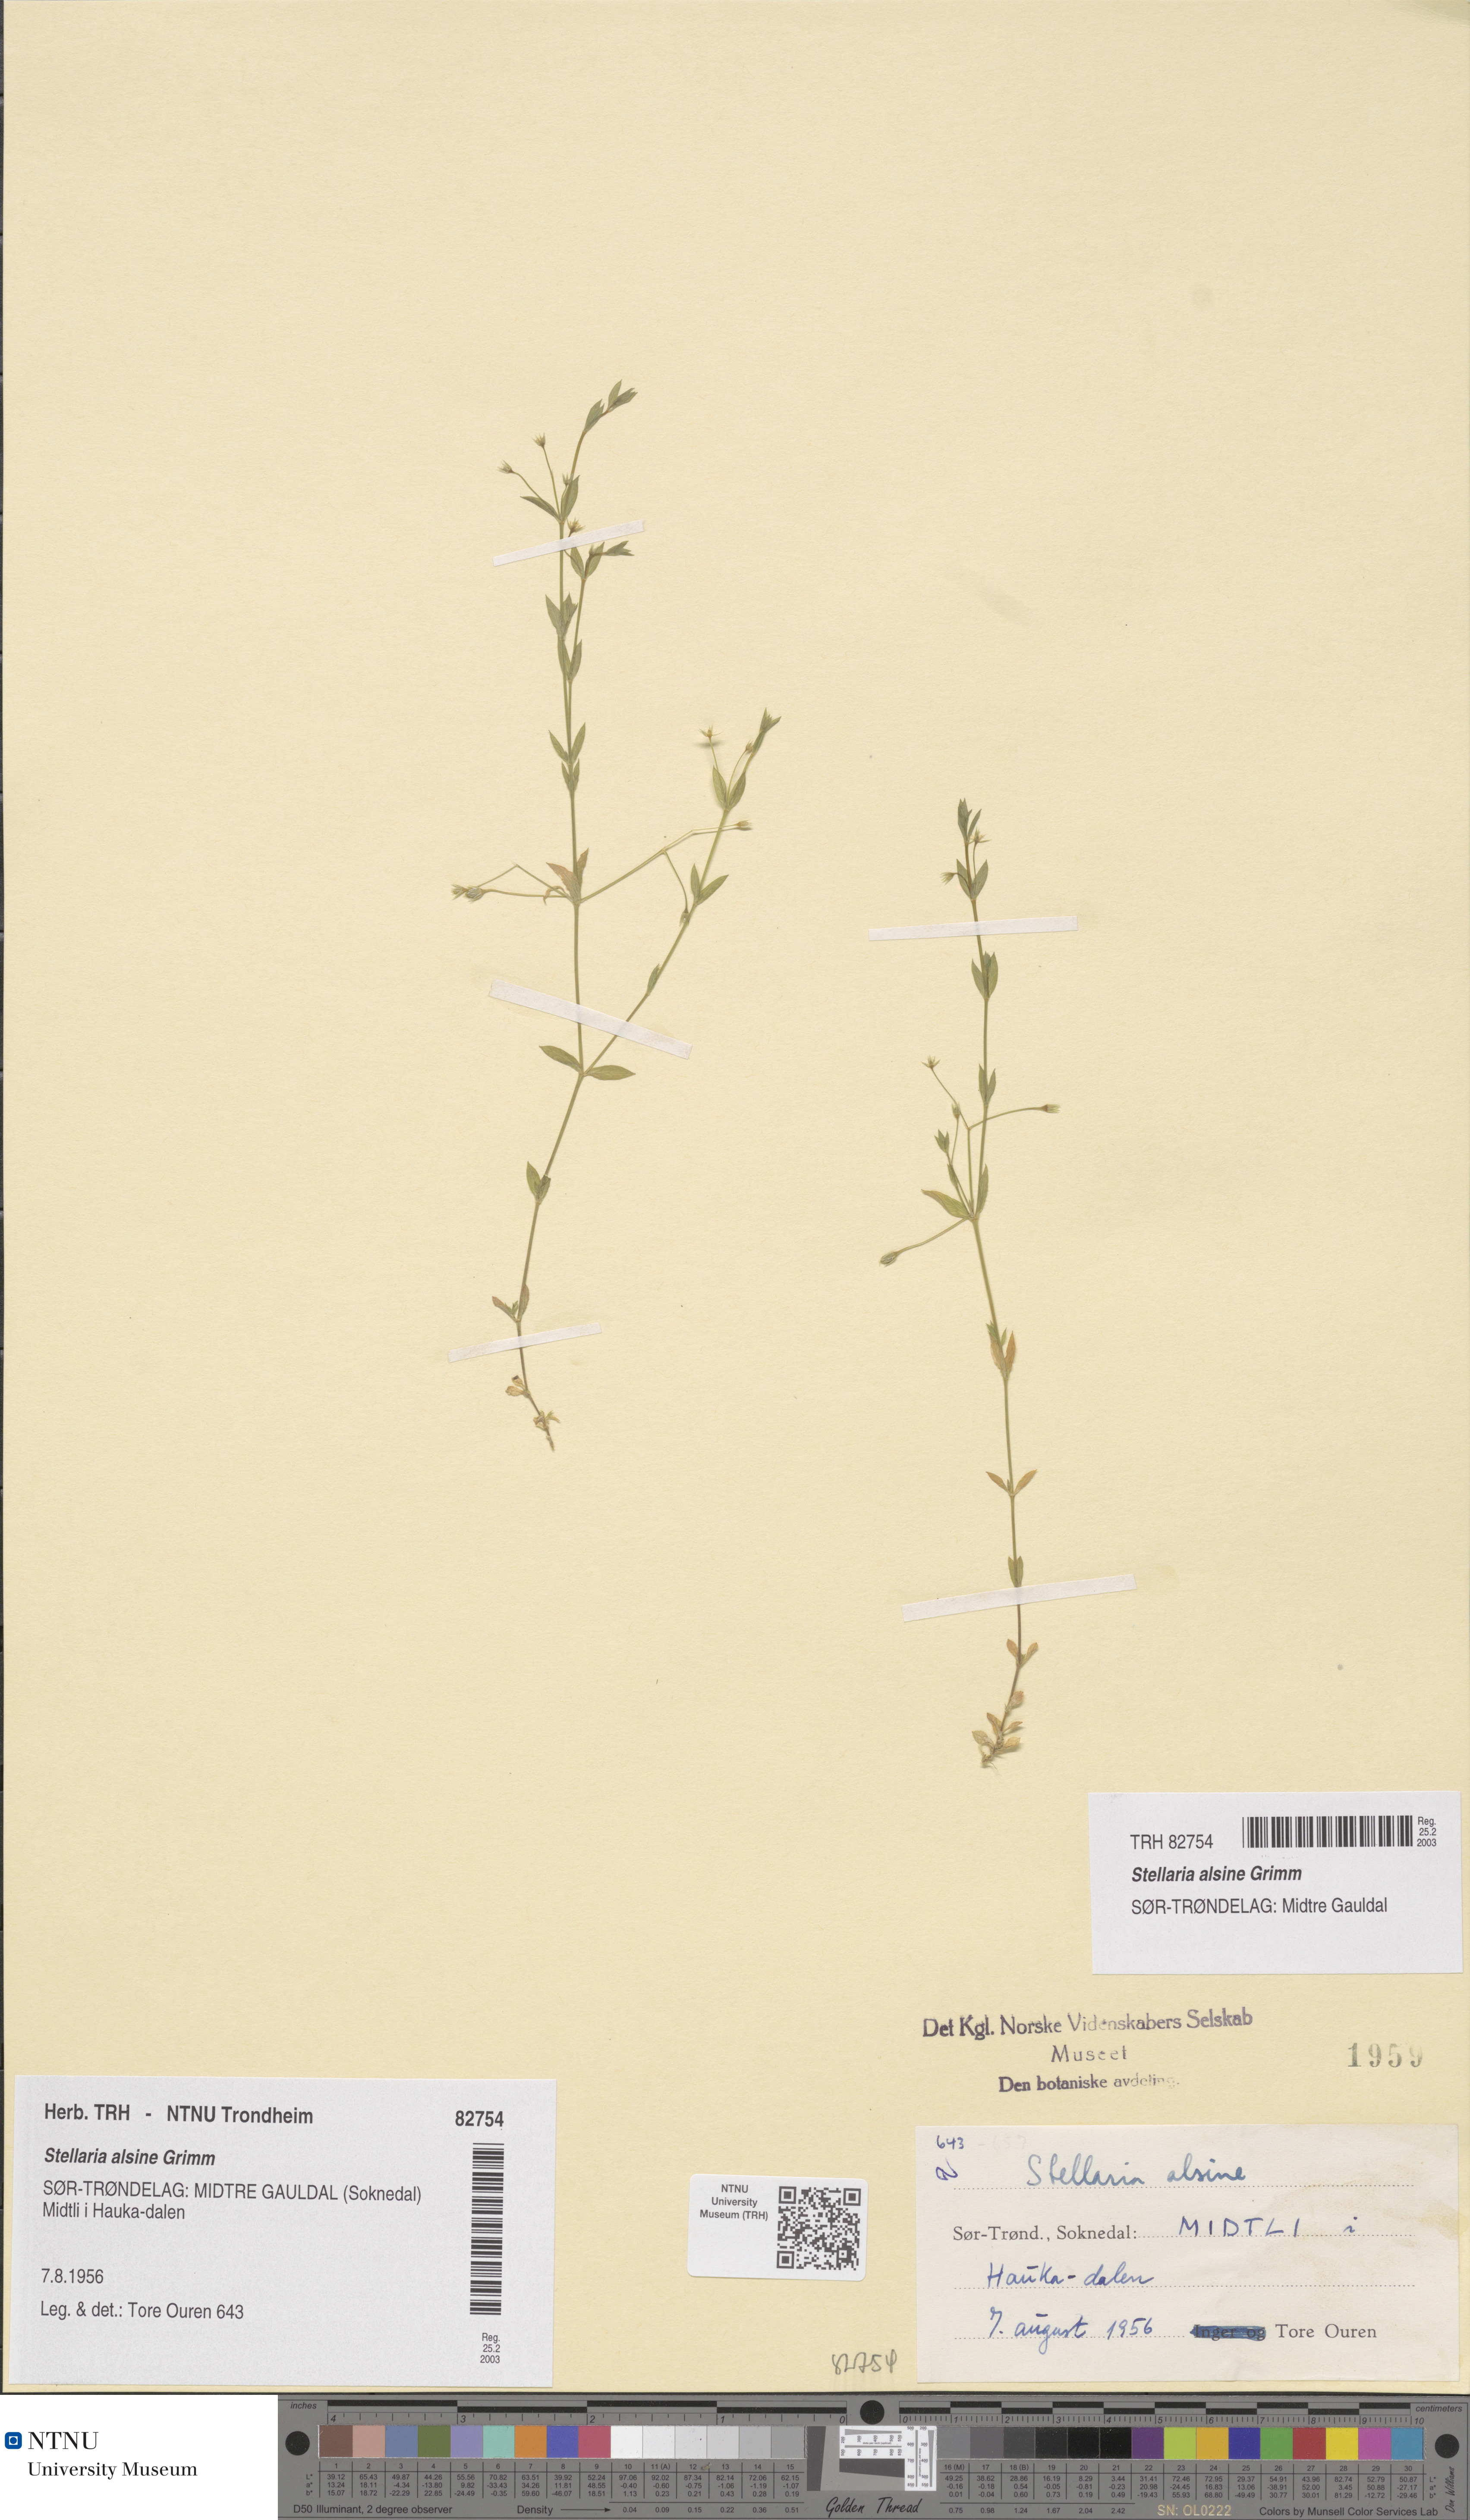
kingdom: Plantae
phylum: Tracheophyta
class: Magnoliopsida
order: Caryophyllales
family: Caryophyllaceae
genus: Stellaria
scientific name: Stellaria alsine
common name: Bog stitchwort
